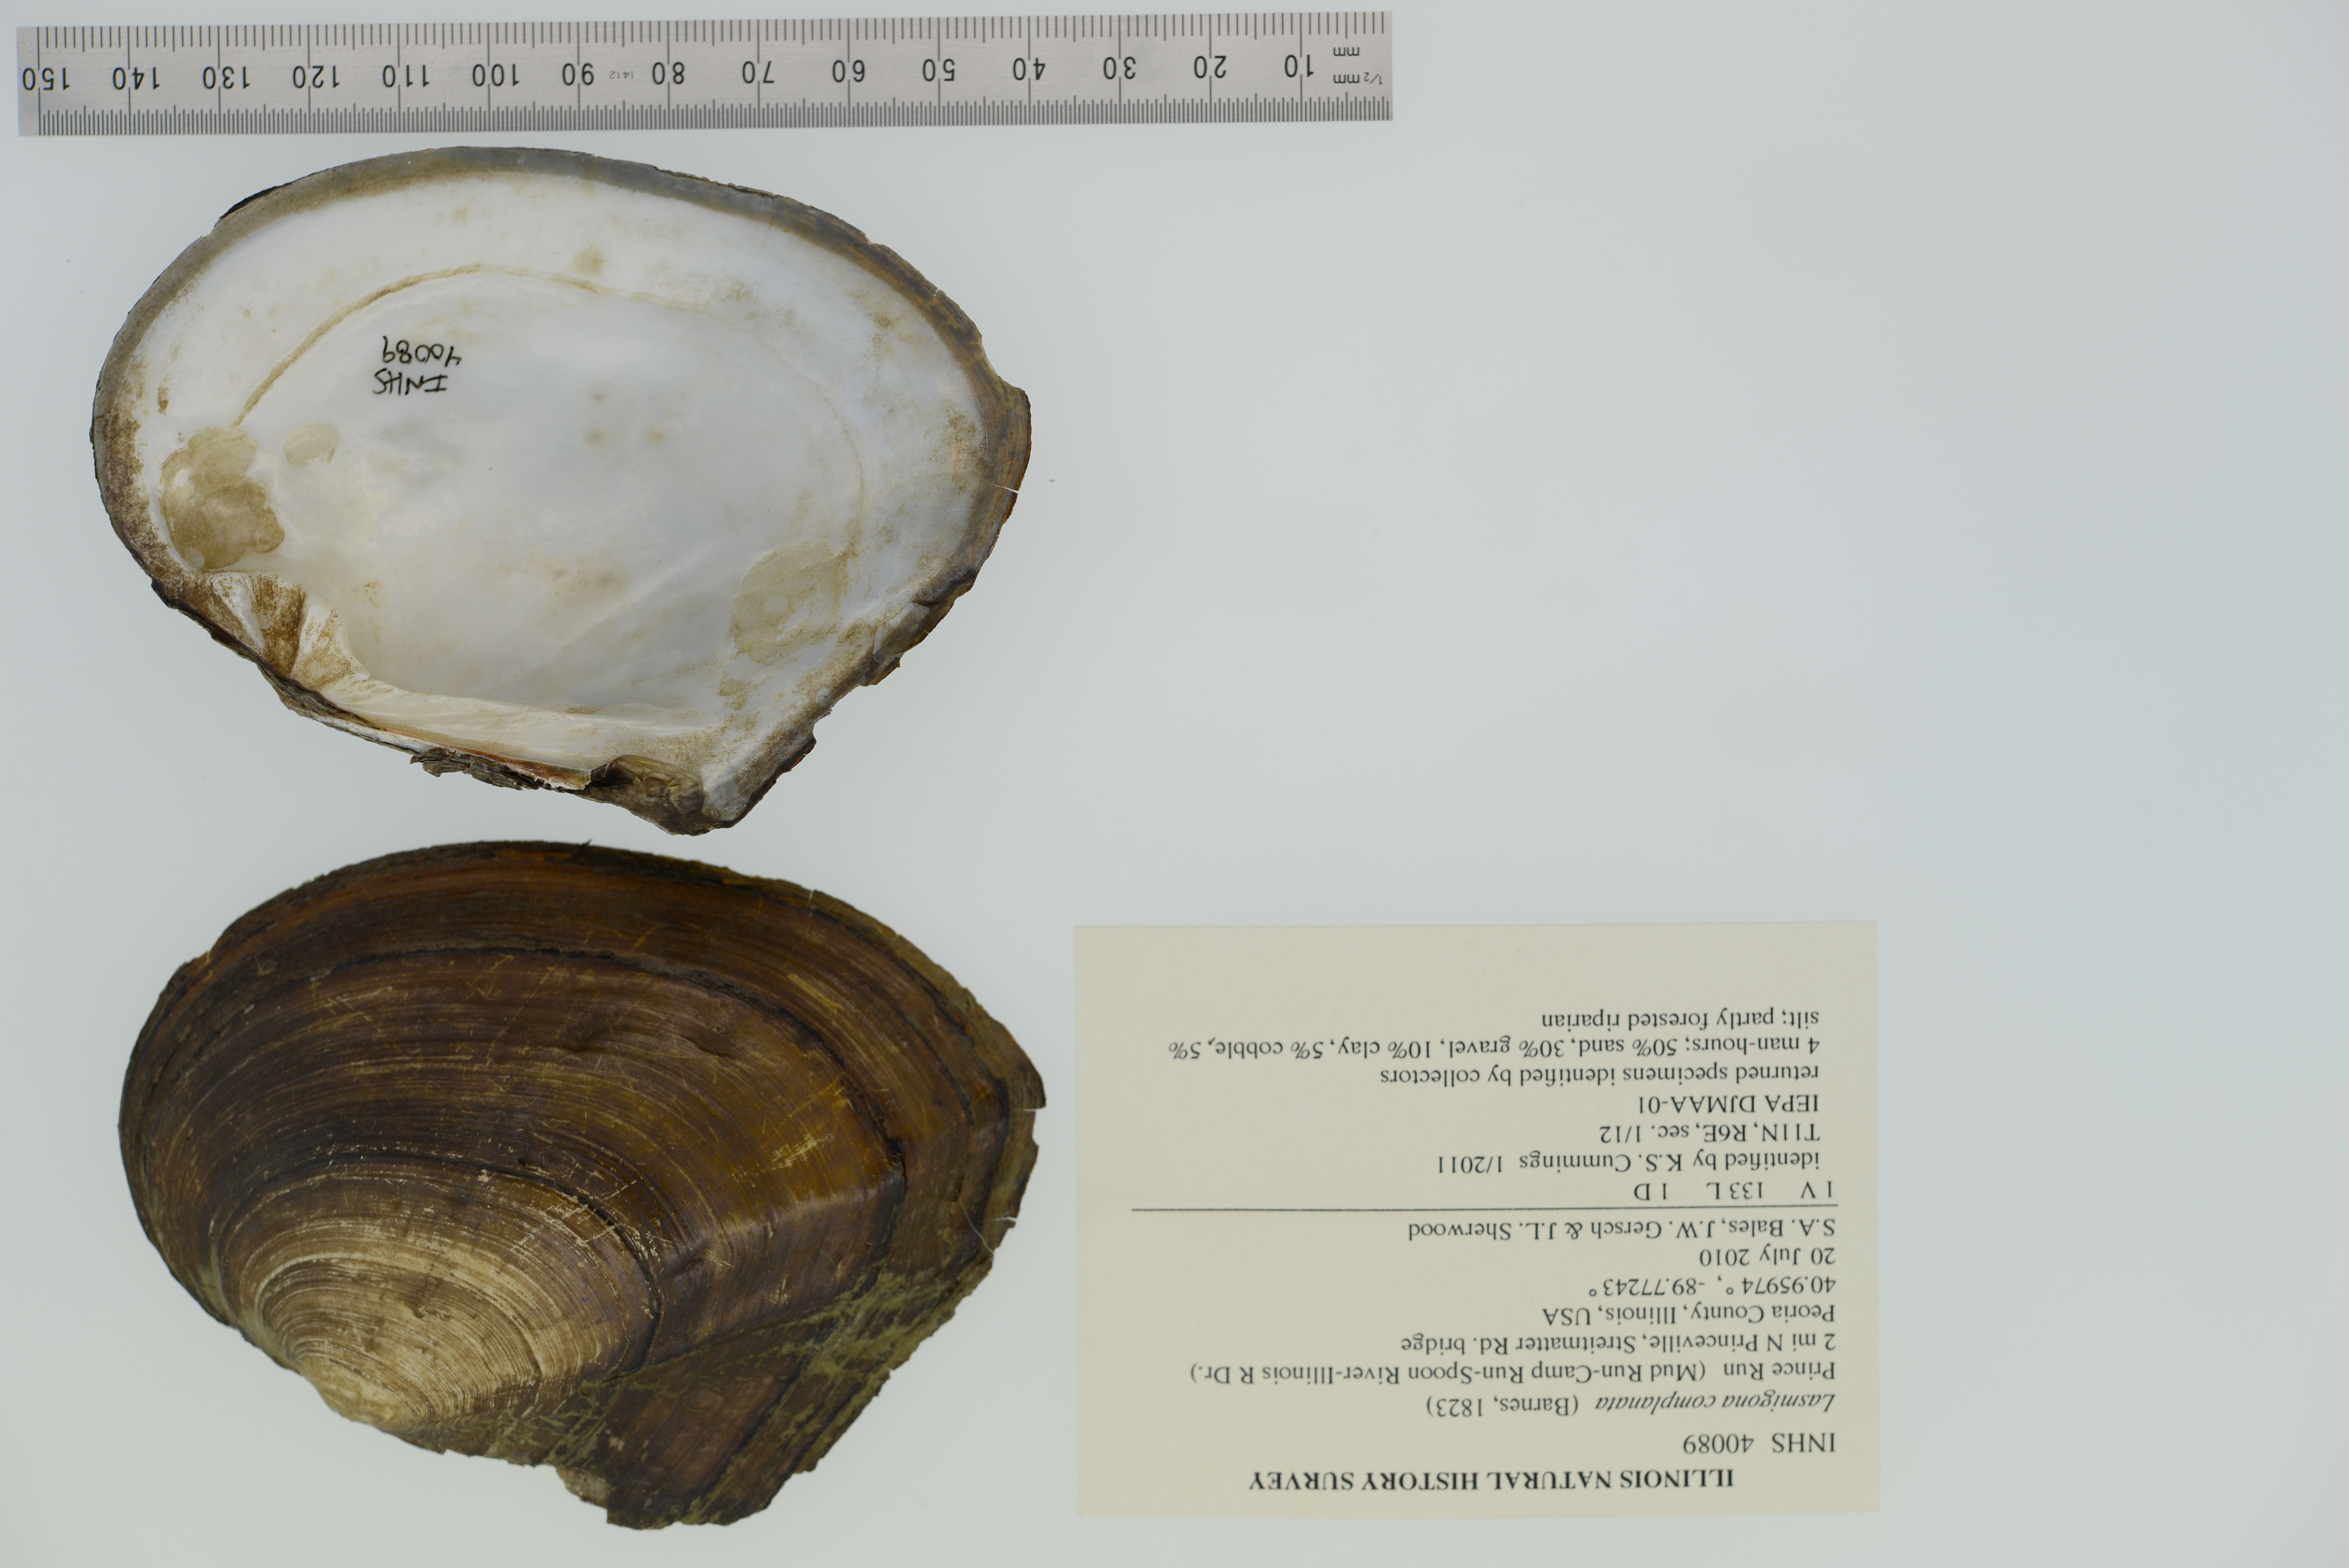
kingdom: Animalia
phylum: Mollusca
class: Bivalvia
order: Unionida
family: Unionidae
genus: Lasmigona
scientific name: Lasmigona complanata
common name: White heelsplitter
